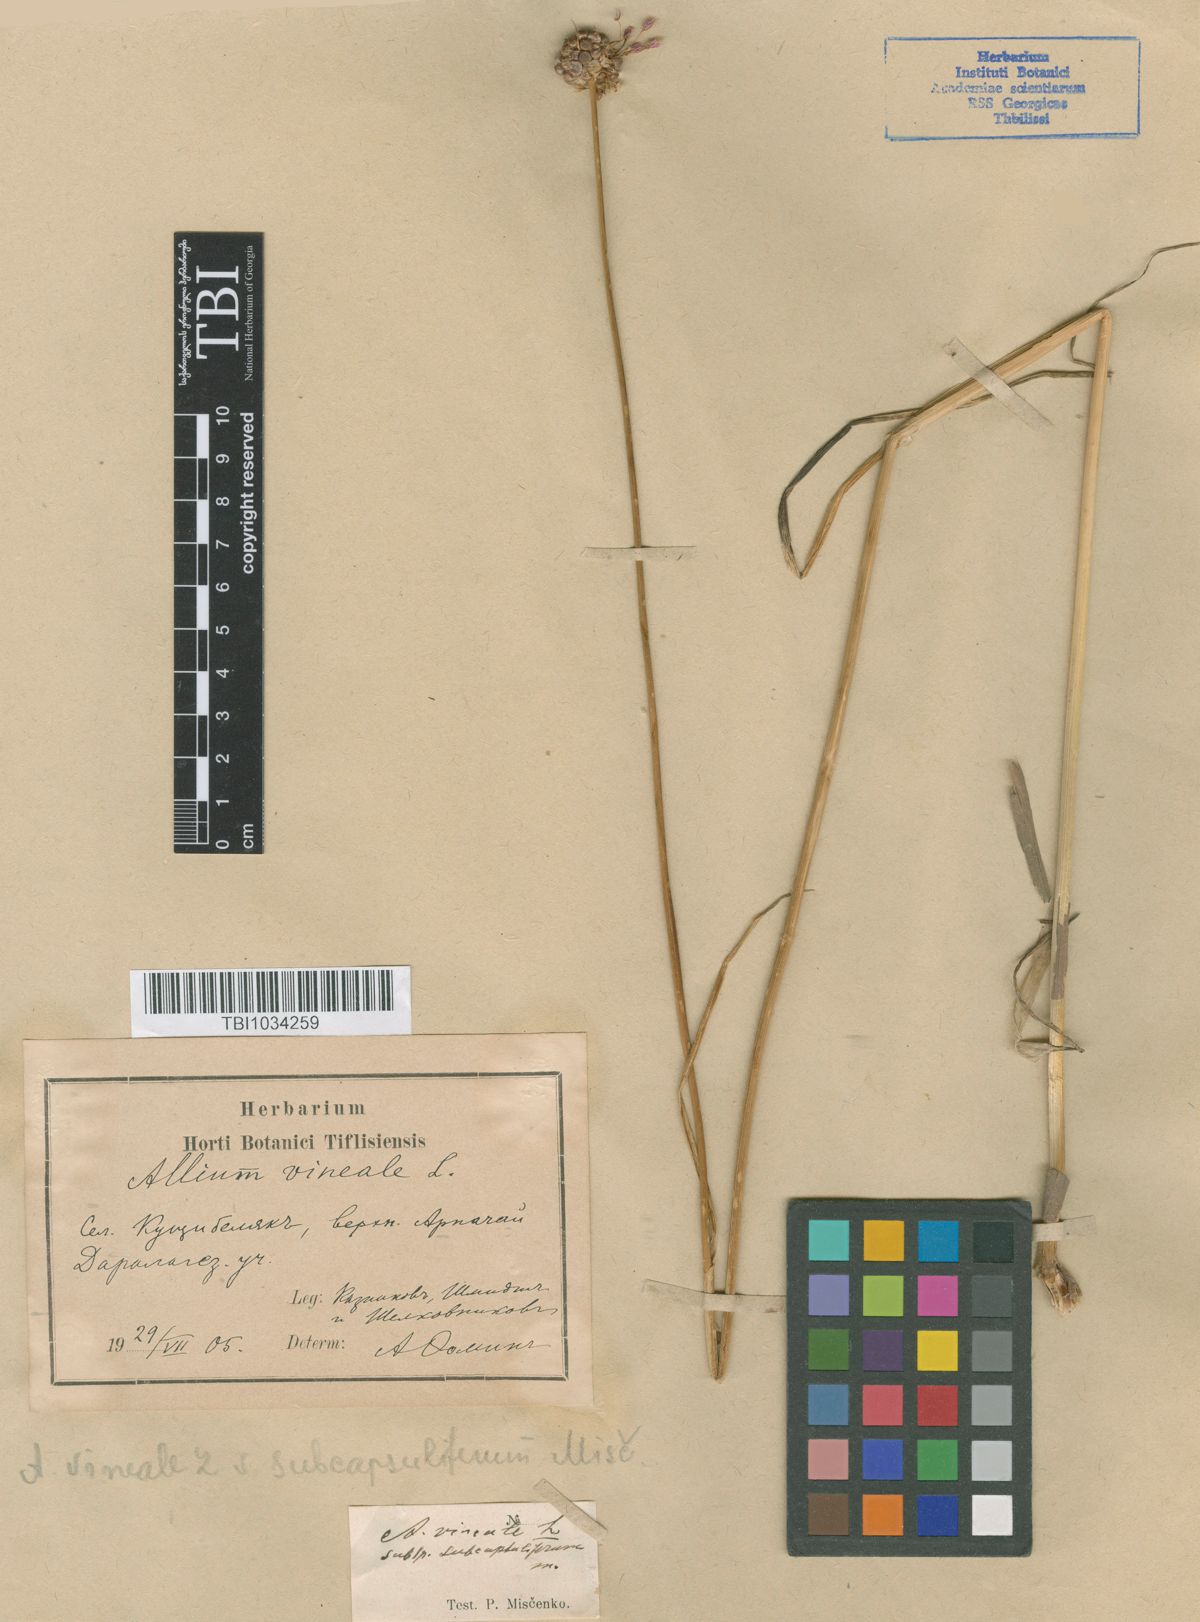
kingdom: Plantae
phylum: Tracheophyta
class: Liliopsida
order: Asparagales
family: Amaryllidaceae
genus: Allium
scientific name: Allium vineale
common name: Crow garlic
